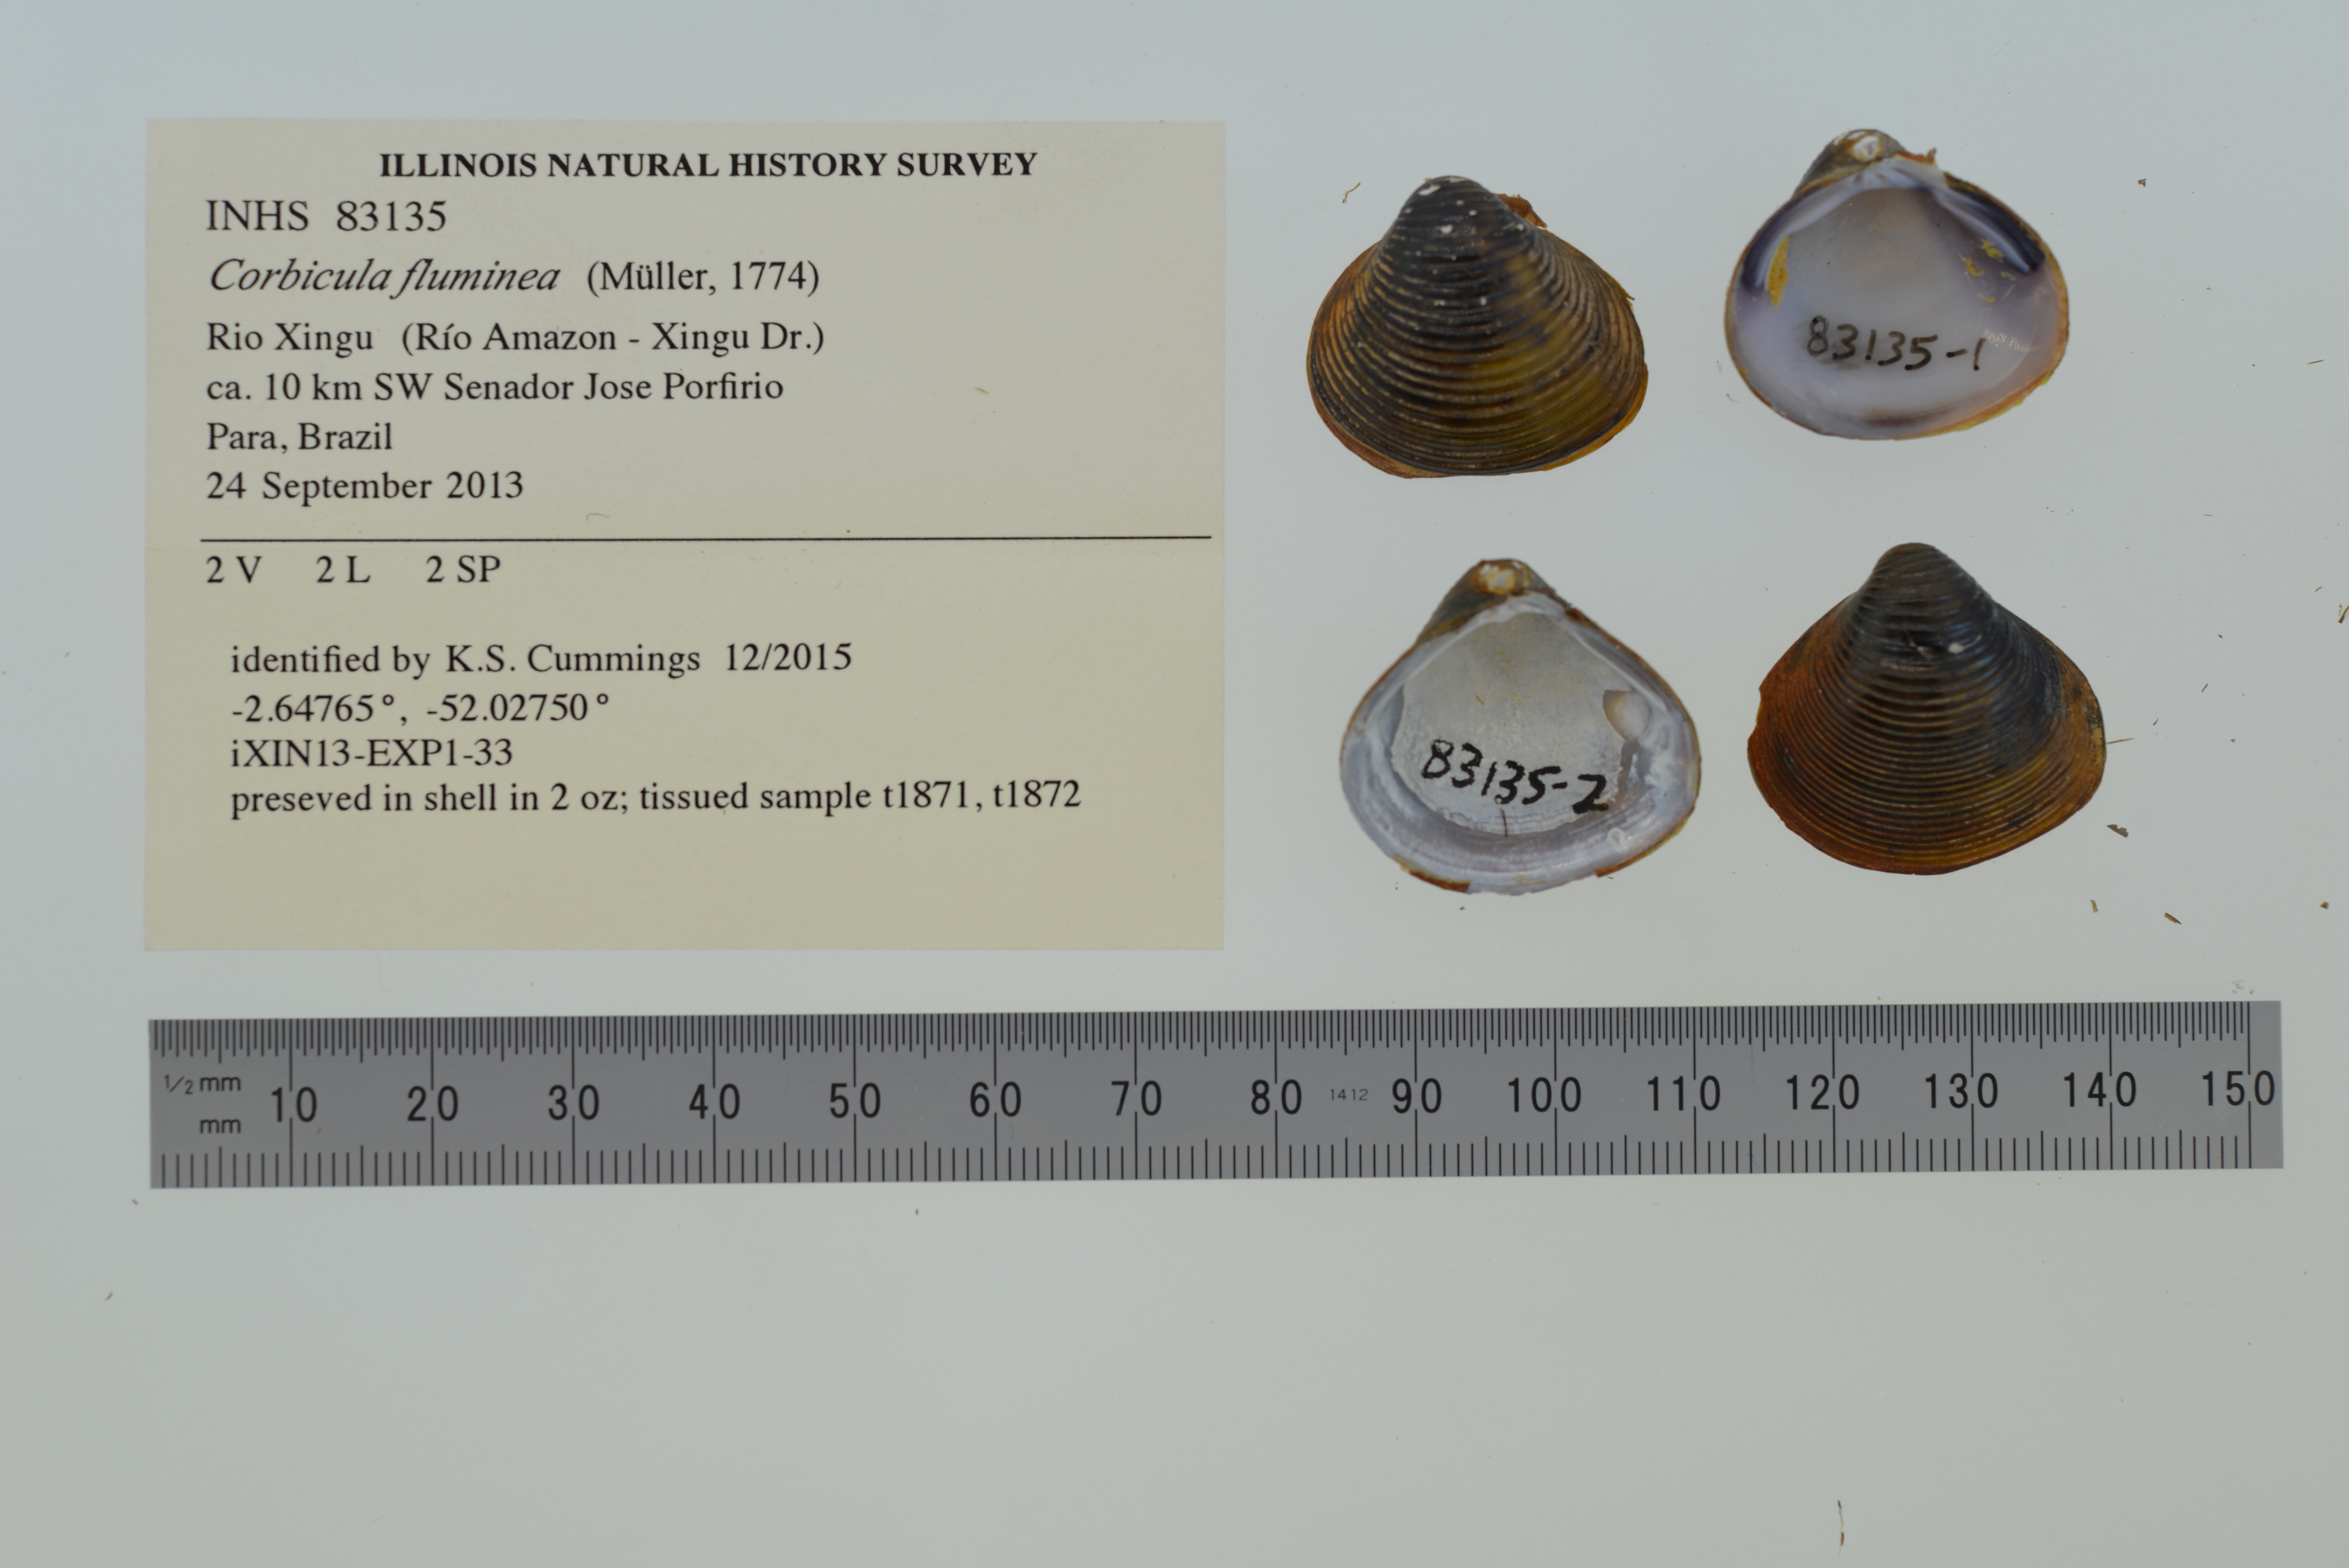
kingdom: Animalia
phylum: Mollusca
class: Bivalvia
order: Venerida
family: Cyrenidae
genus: Corbicula
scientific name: Corbicula fluminea
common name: Asian clam
